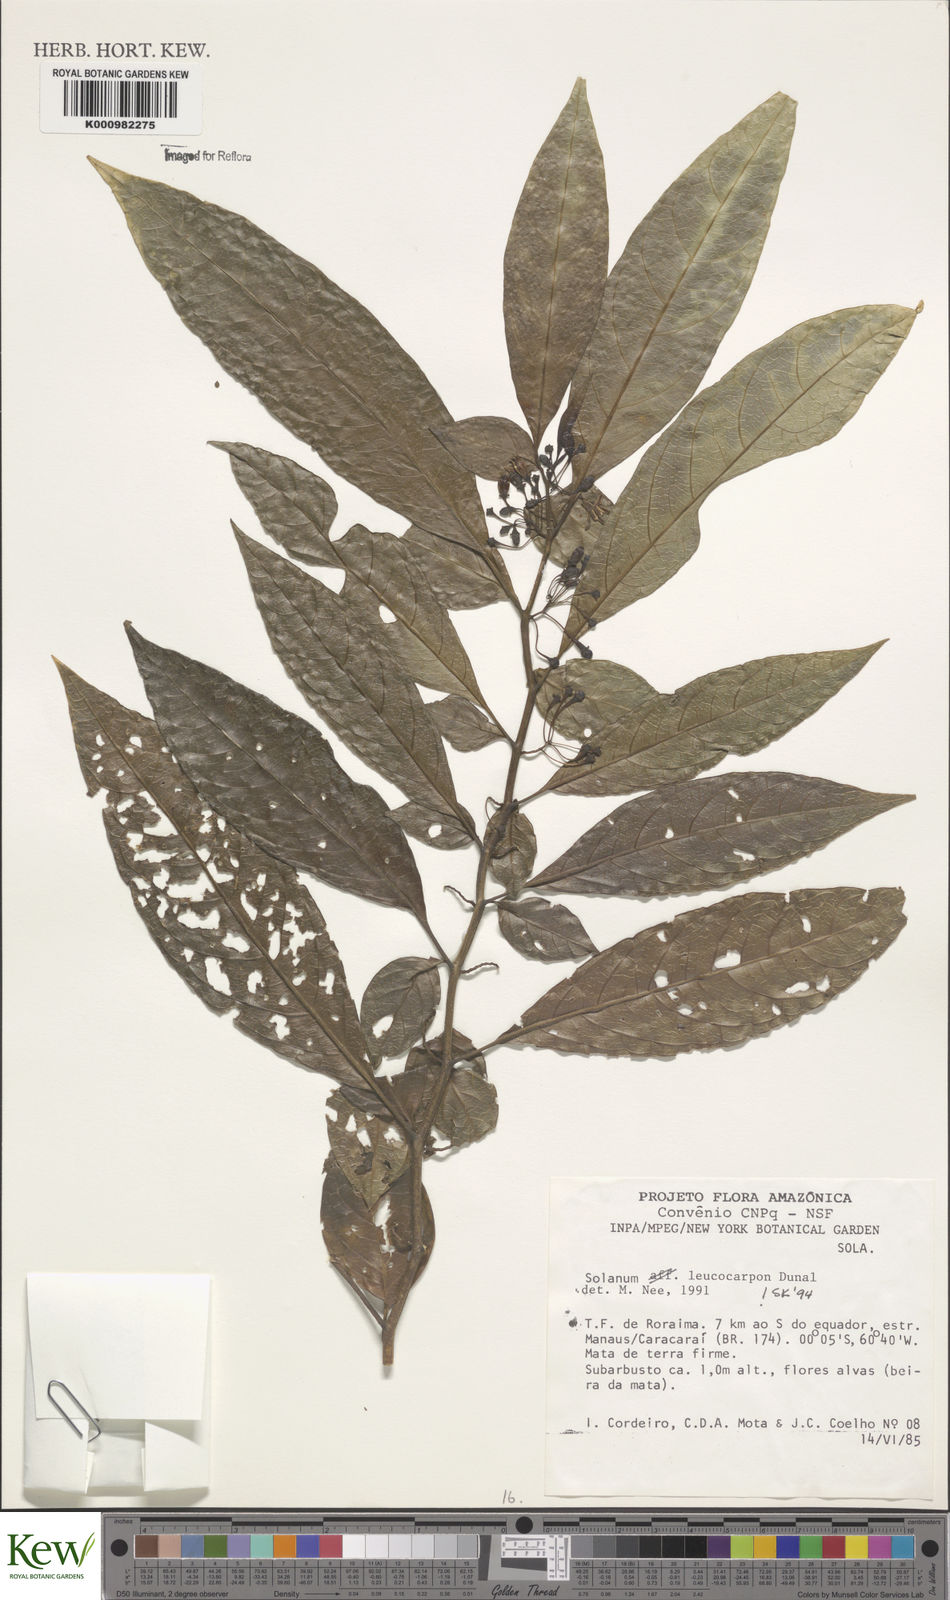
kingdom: Plantae
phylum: Tracheophyta
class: Magnoliopsida
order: Solanales
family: Solanaceae
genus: Solanum
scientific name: Solanum leucocarpon
